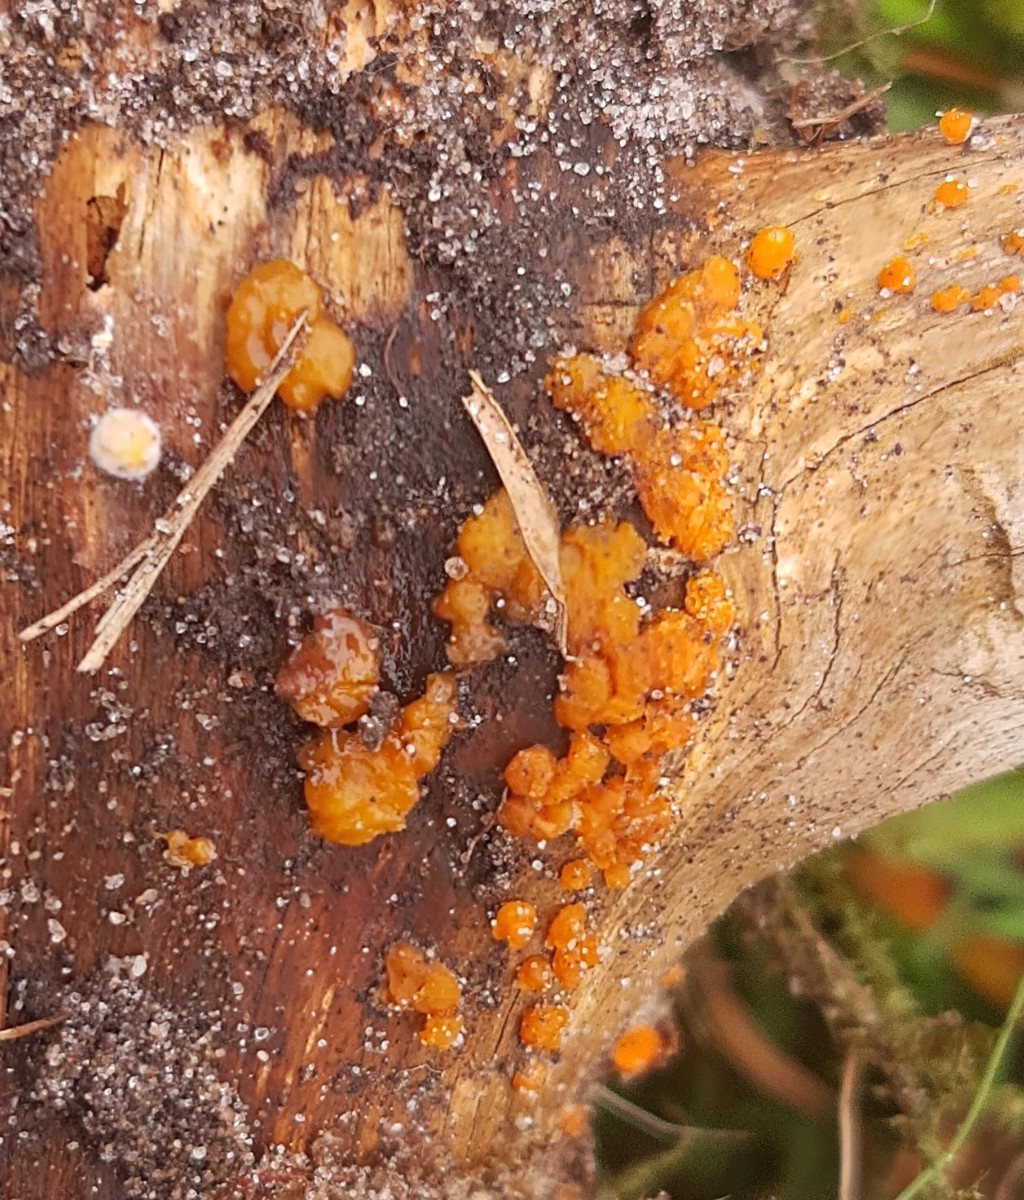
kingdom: Fungi
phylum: Basidiomycota
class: Dacrymycetes
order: Dacrymycetales
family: Dacrymycetaceae
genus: Dacrymyces
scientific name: Dacrymyces stillatus
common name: almindelig tåresvamp
